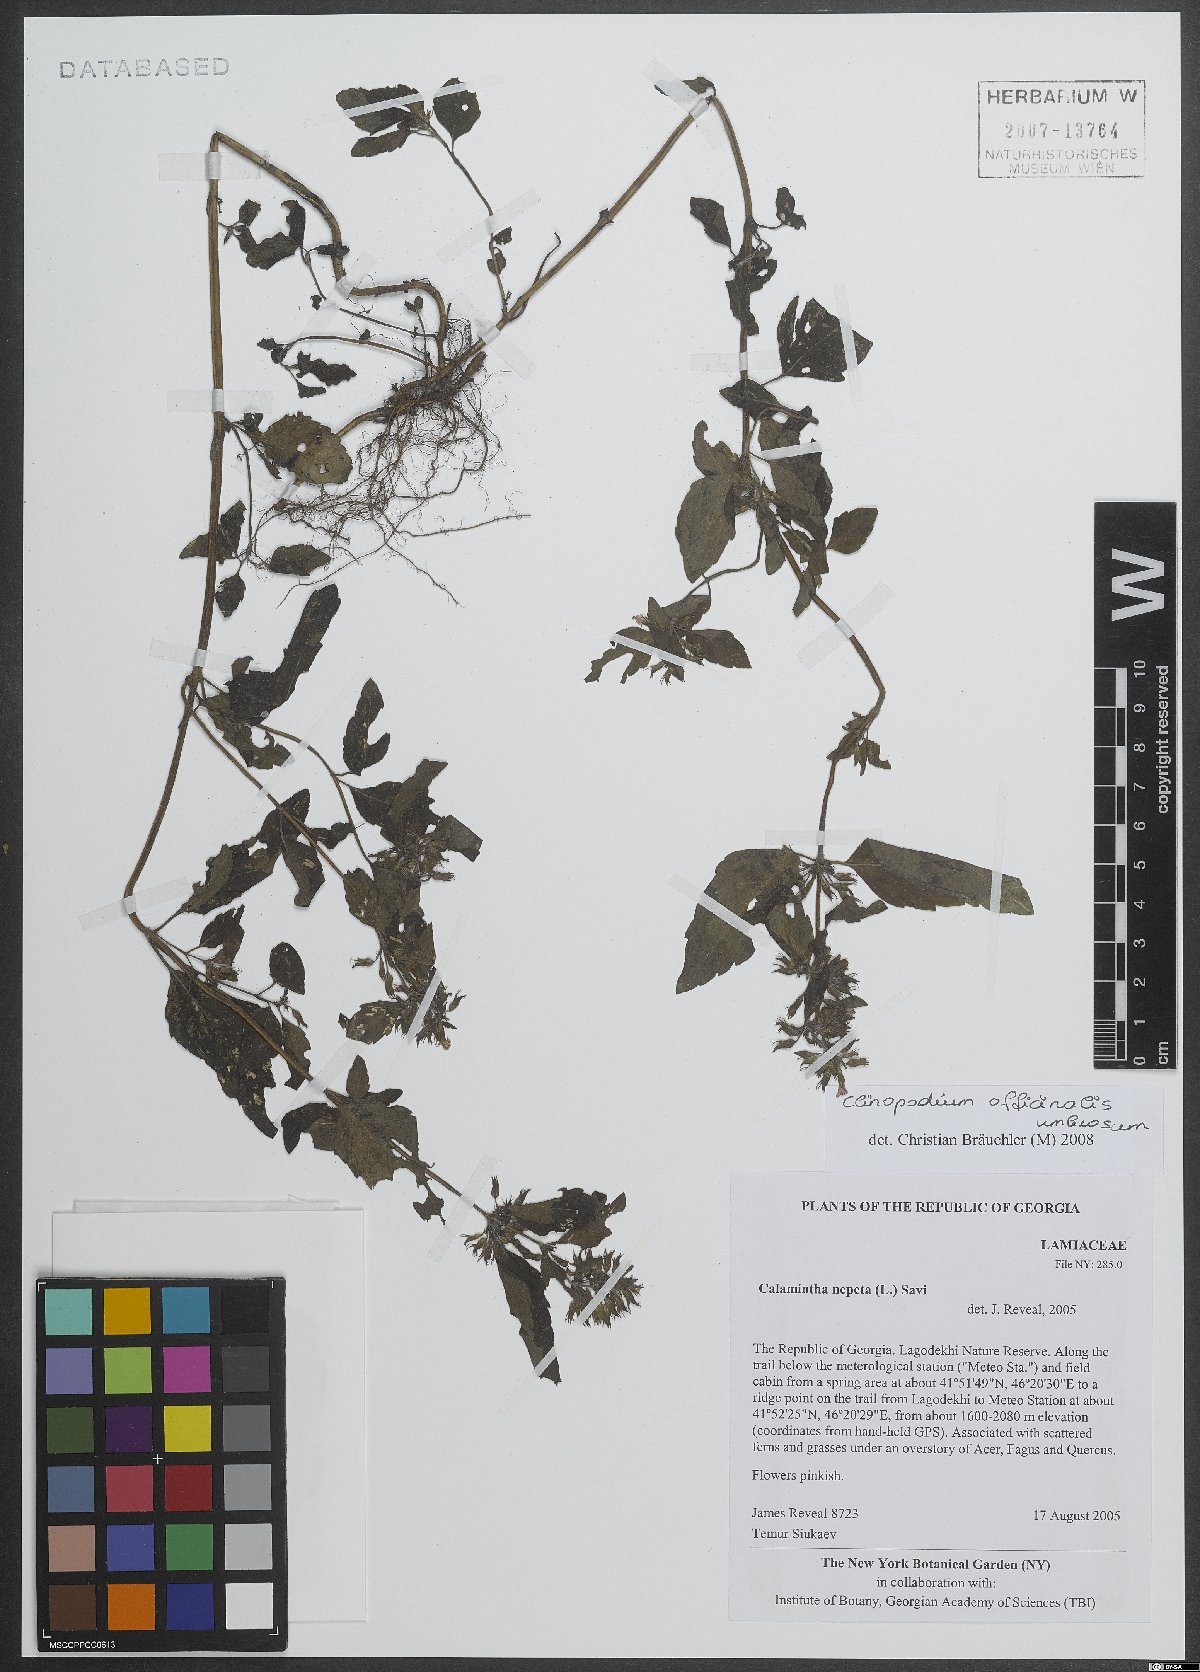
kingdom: Plantae
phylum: Tracheophyta
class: Magnoliopsida
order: Lamiales
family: Lamiaceae
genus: Clinopodium
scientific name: Clinopodium nepeta
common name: Lesser calamint
